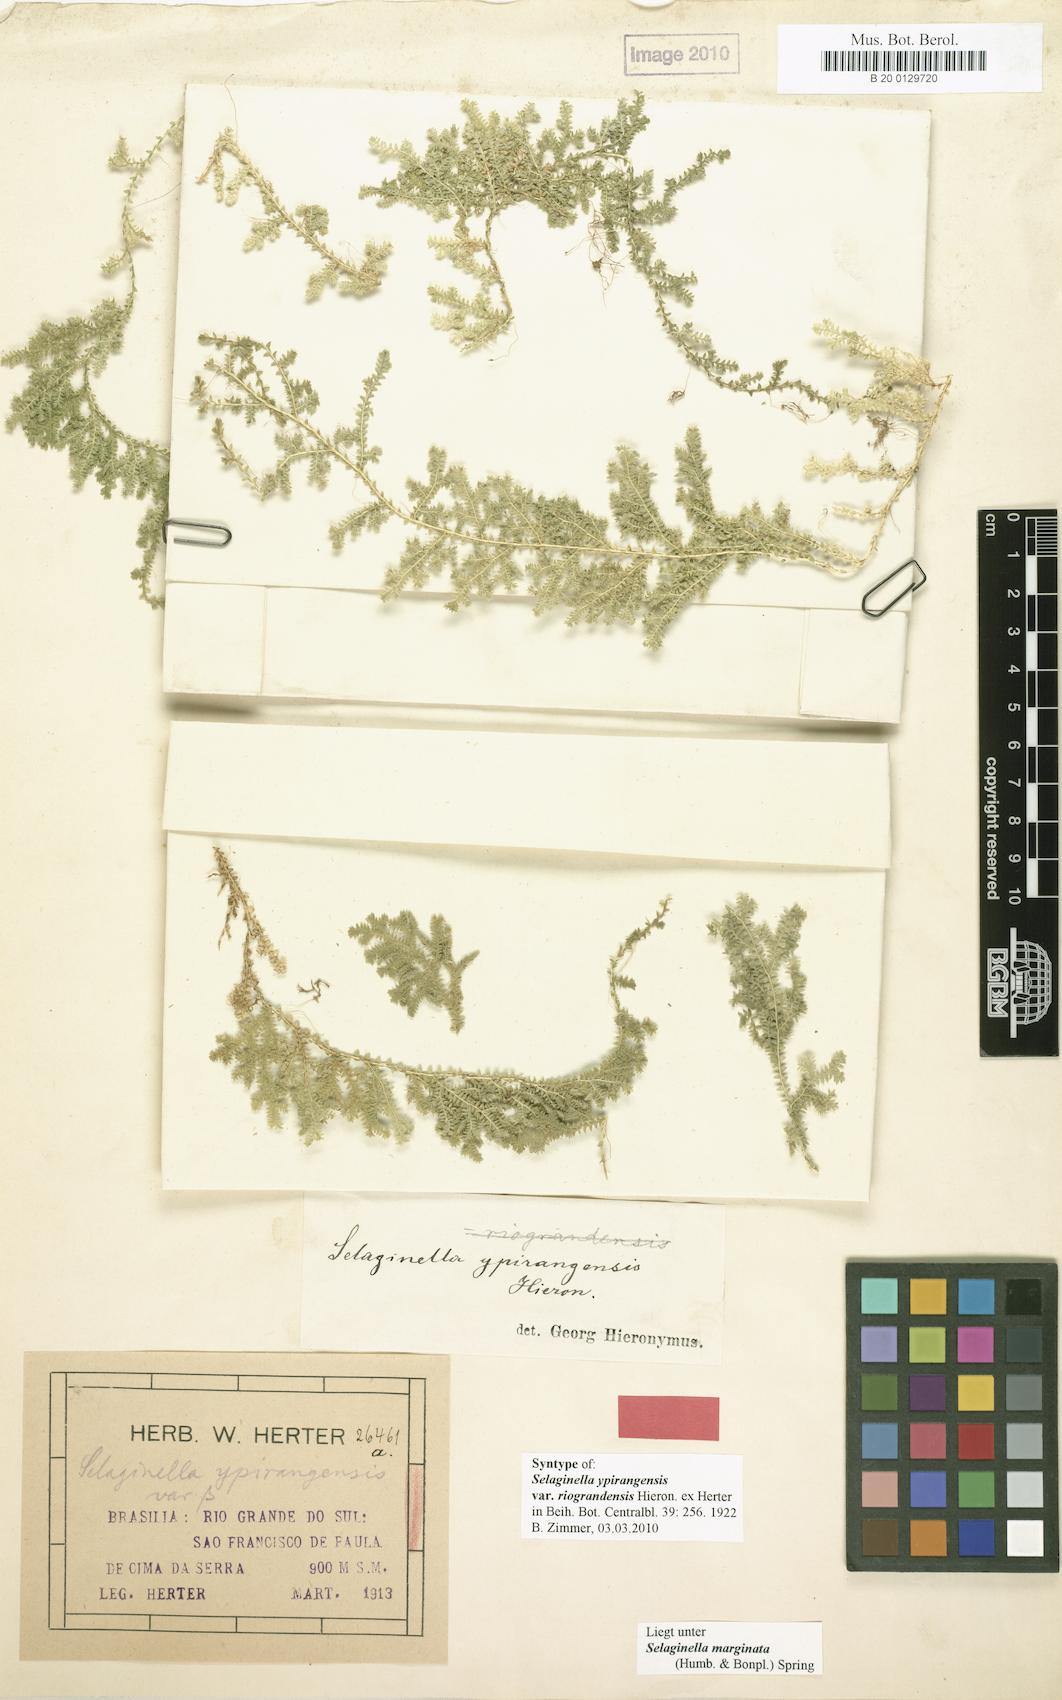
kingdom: Plantae
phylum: Tracheophyta
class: Lycopodiopsida
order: Selaginellales
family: Selaginellaceae
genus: Selaginella
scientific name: Selaginella marginata
